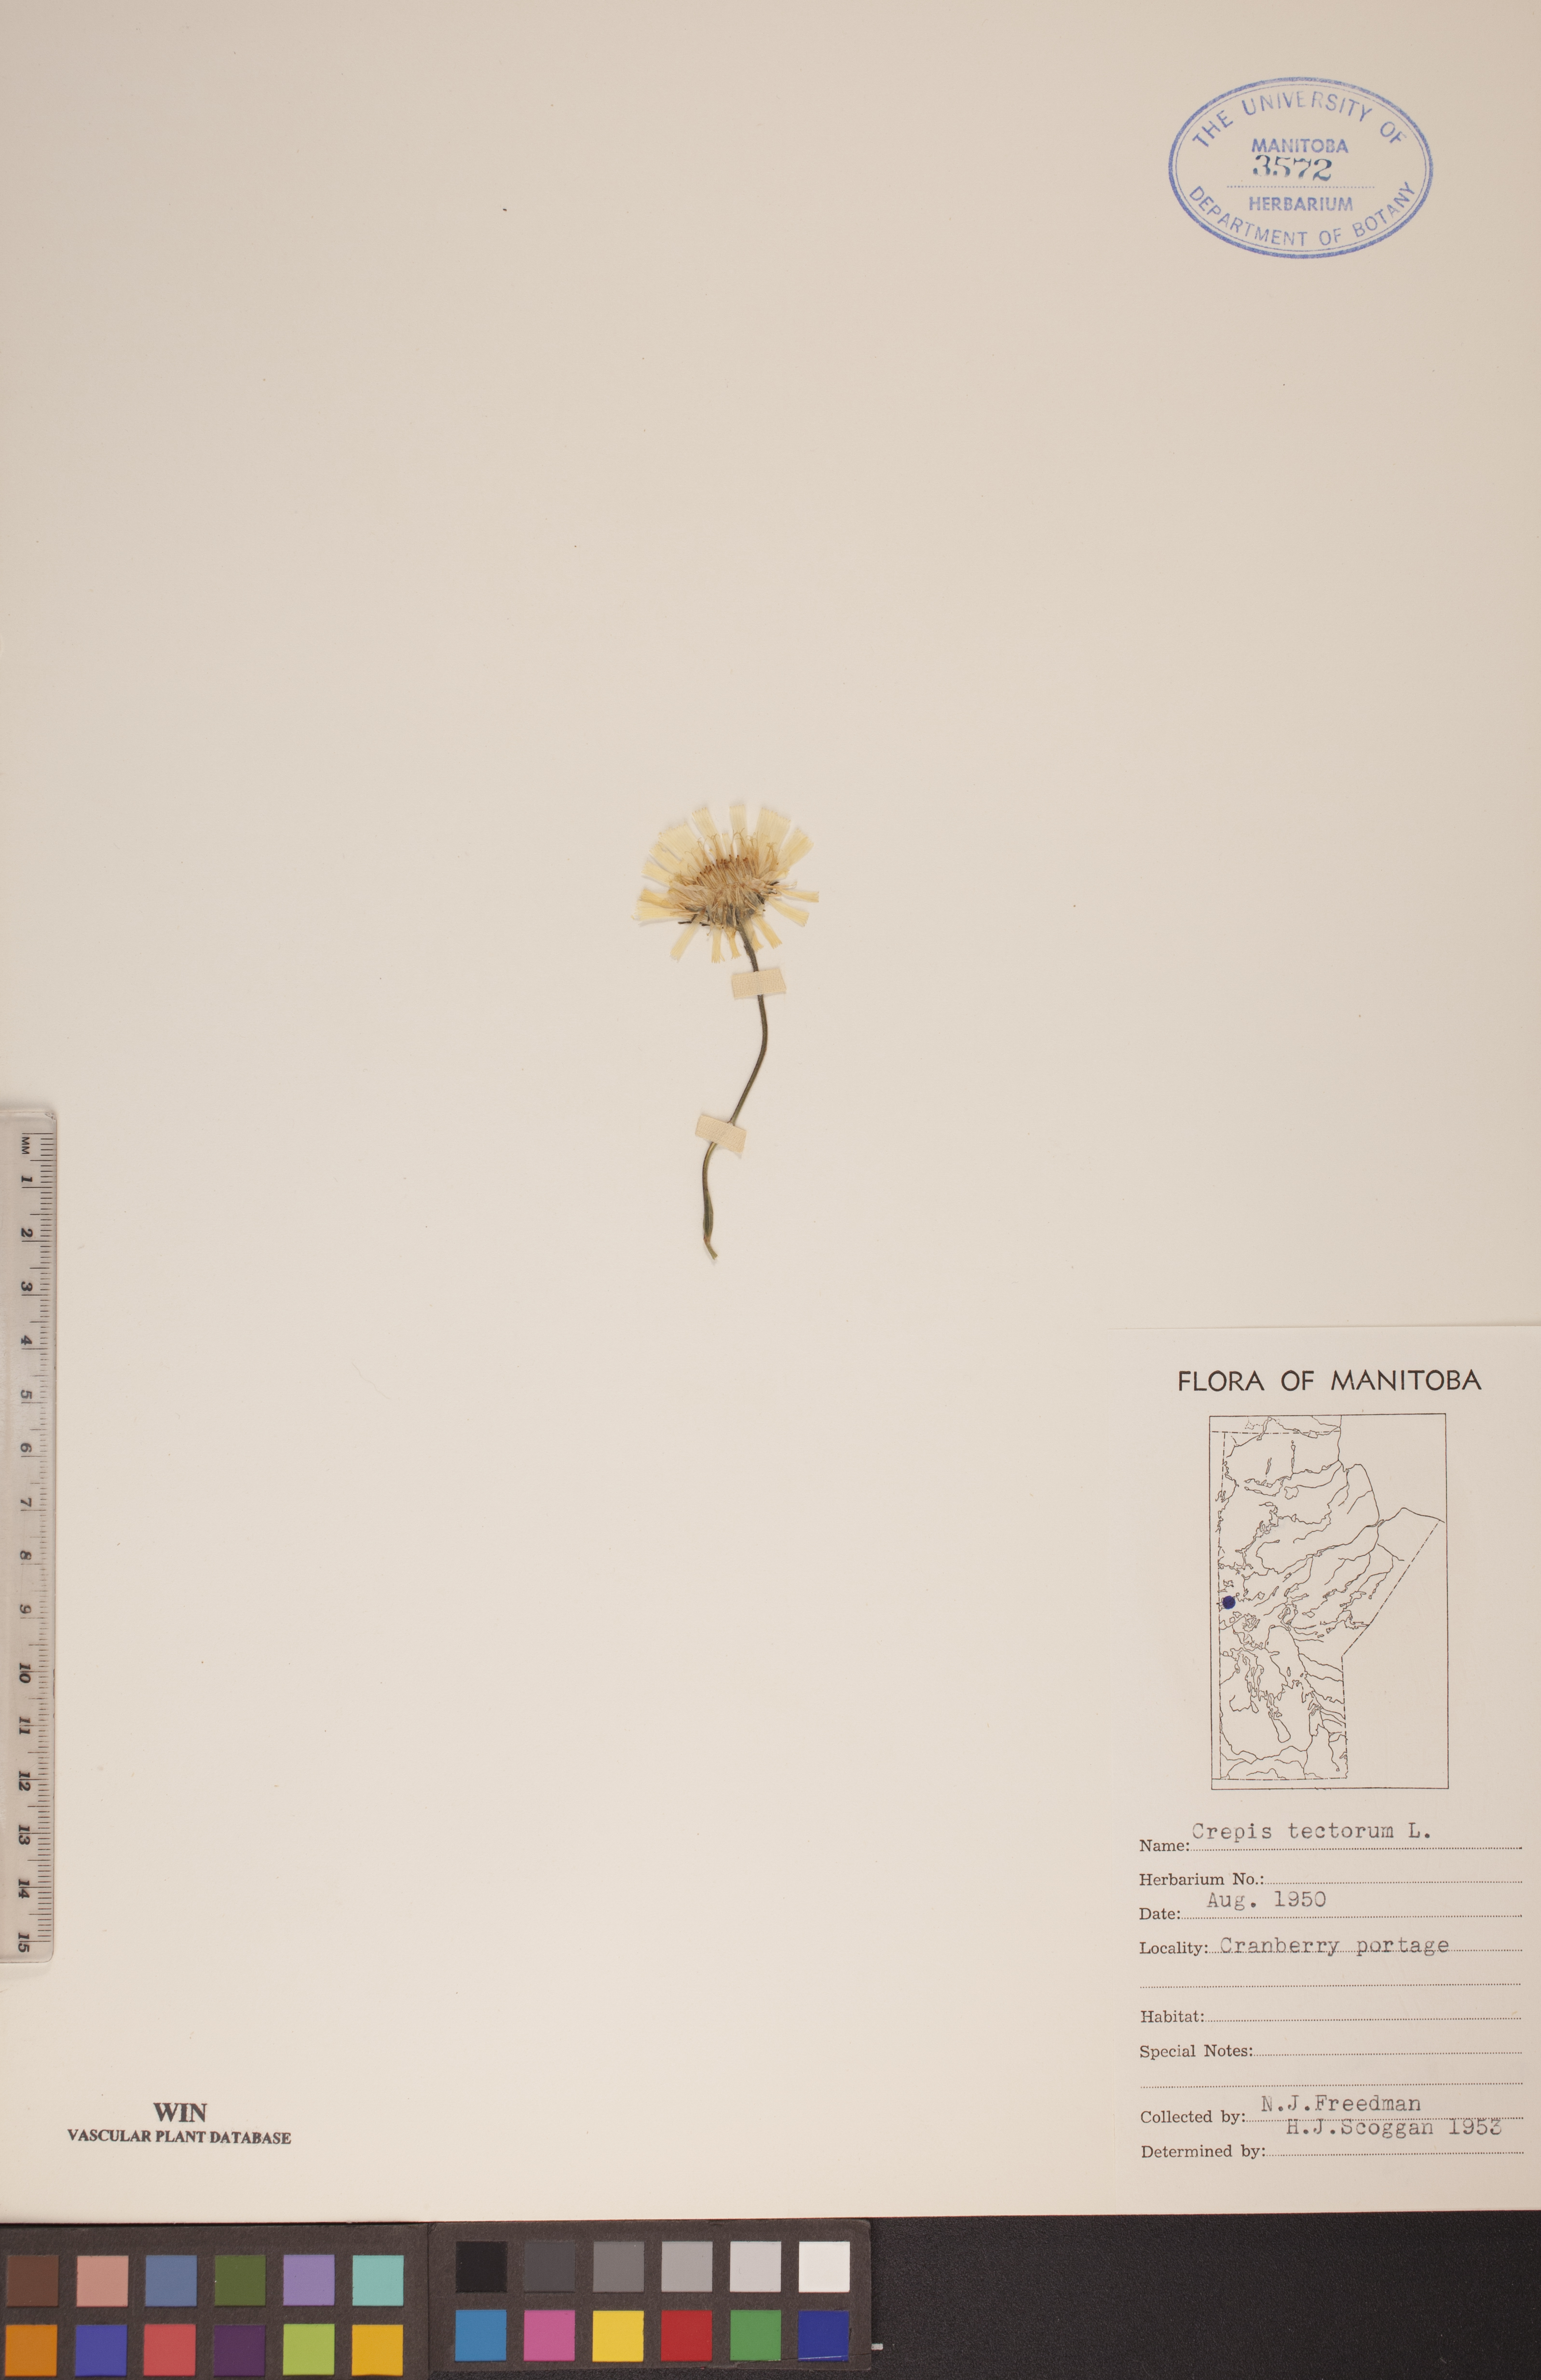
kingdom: Plantae
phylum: Tracheophyta
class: Magnoliopsida
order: Asterales
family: Asteraceae
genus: Crepis
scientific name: Crepis tectorum
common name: Narrow-leaved hawk's-beard
